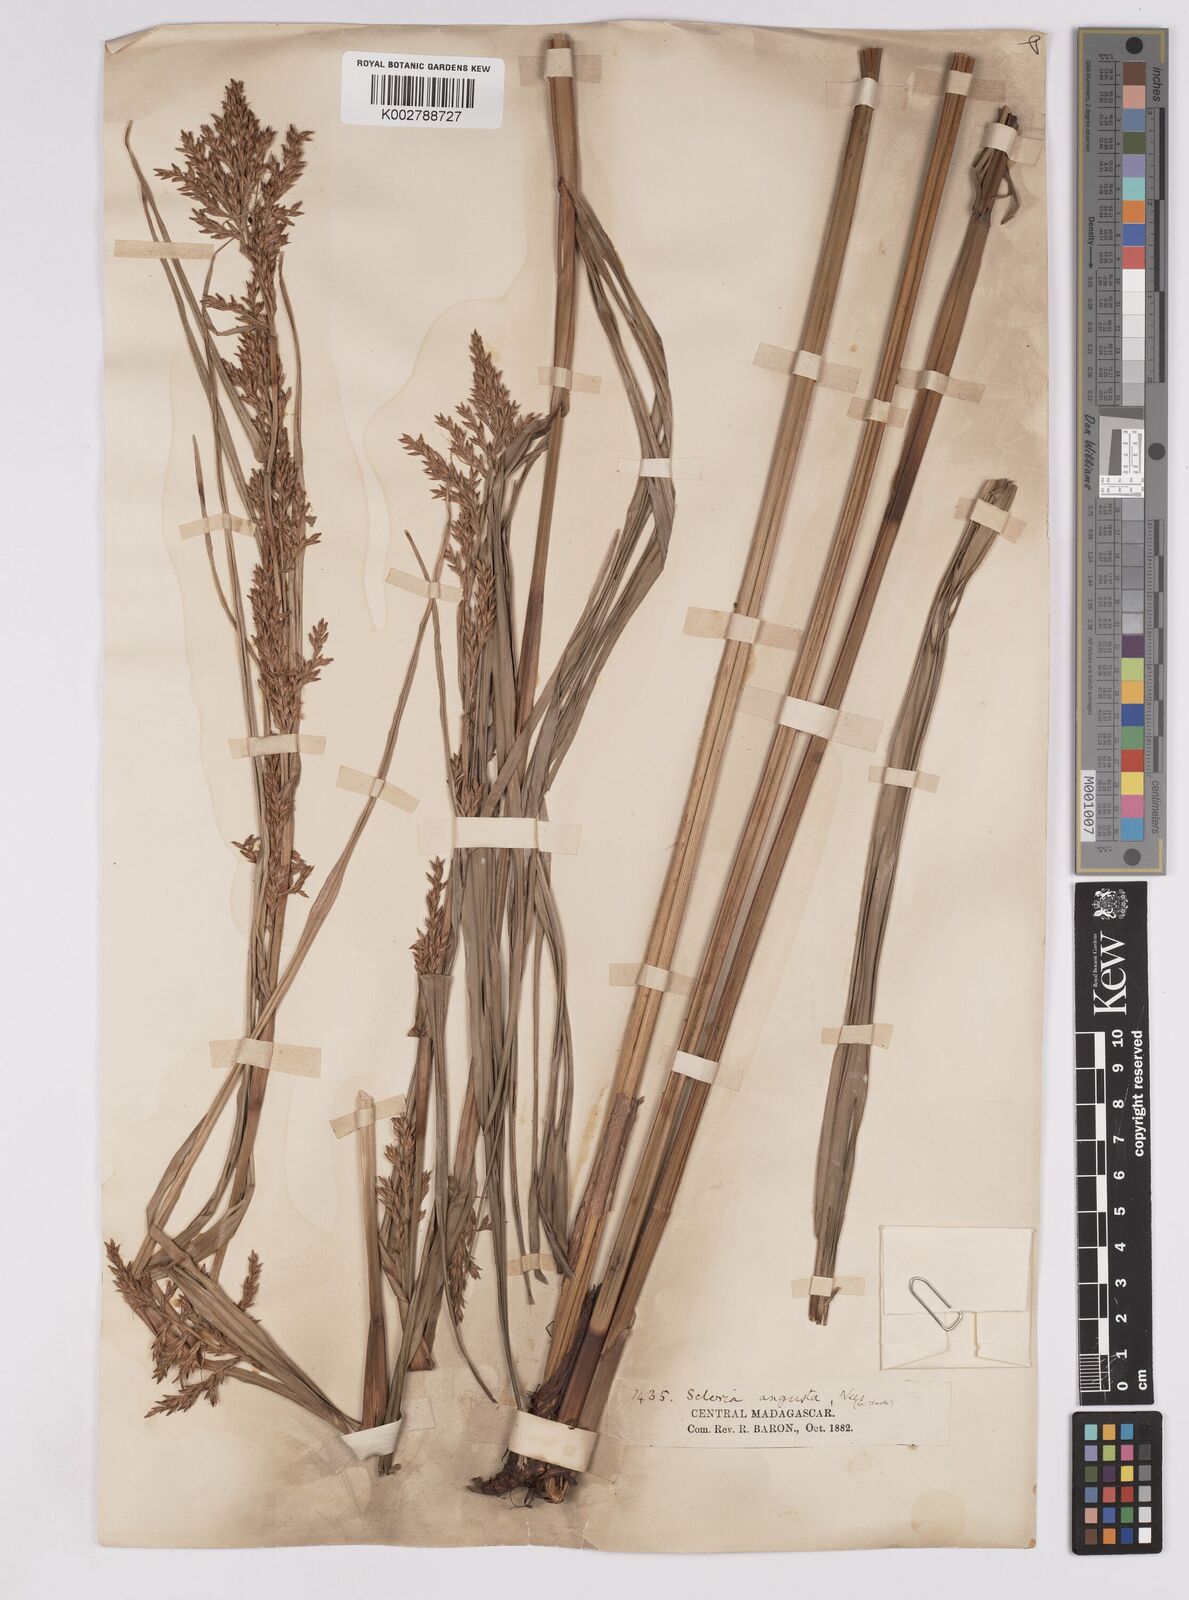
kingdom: Plantae
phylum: Tracheophyta
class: Liliopsida
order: Poales
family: Cyperaceae
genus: Scleria
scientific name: Scleria angusta
